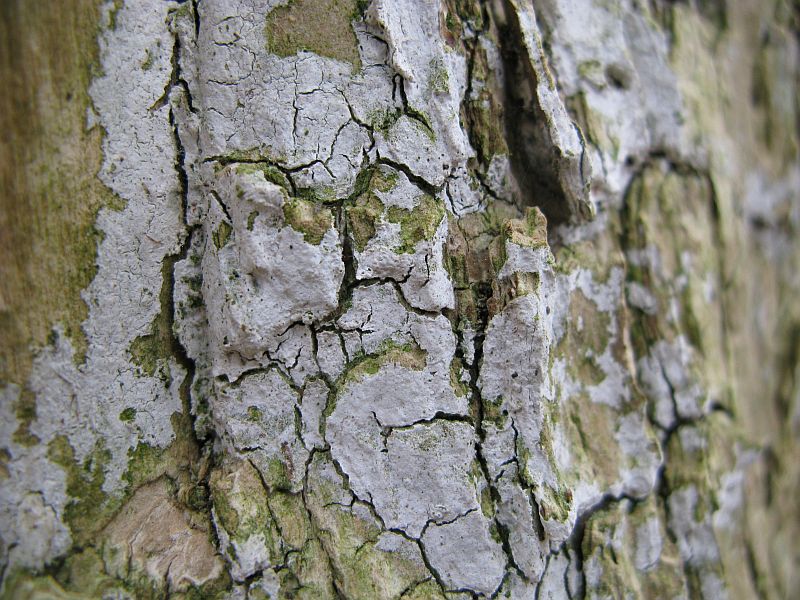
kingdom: Fungi
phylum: Basidiomycota
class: Agaricomycetes
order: Corticiales
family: Corticiaceae
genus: Lyomyces
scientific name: Lyomyces sambuci
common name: almindelig hyldehinde
